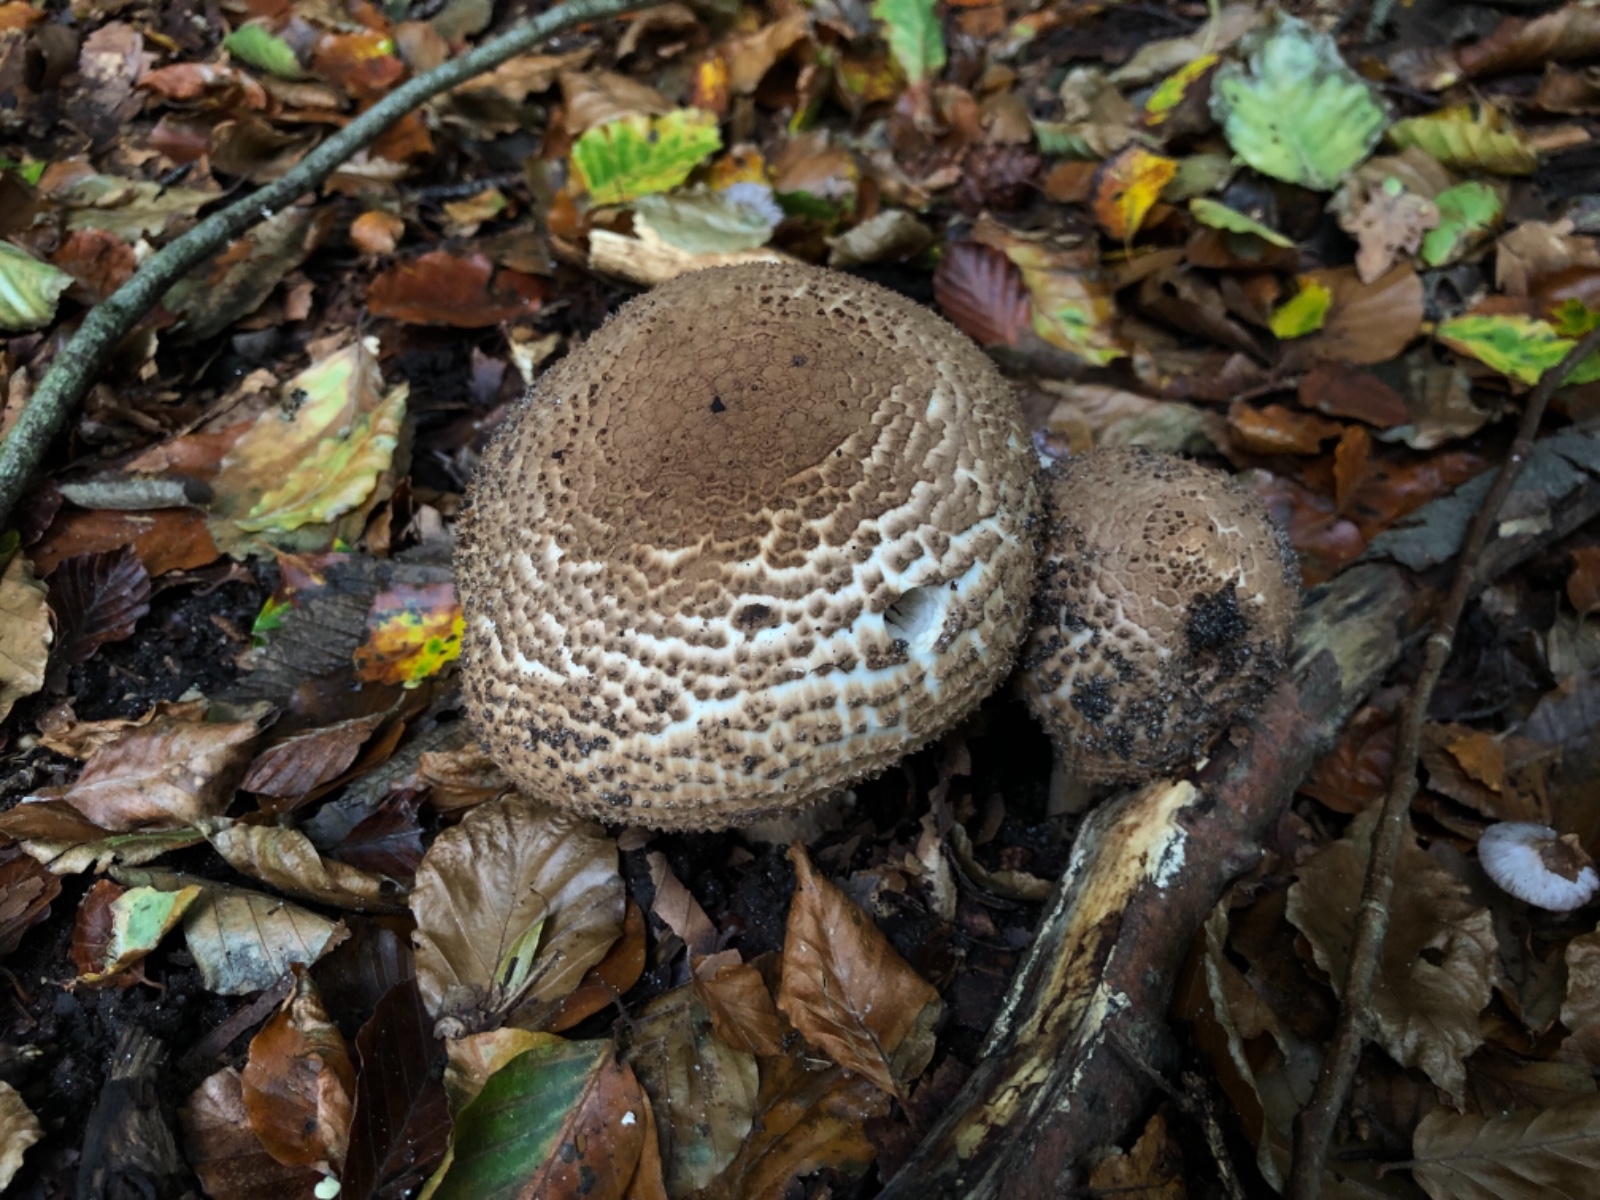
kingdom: Fungi
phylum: Basidiomycota
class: Agaricomycetes
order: Agaricales
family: Agaricaceae
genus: Echinoderma
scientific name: Echinoderma asperum
